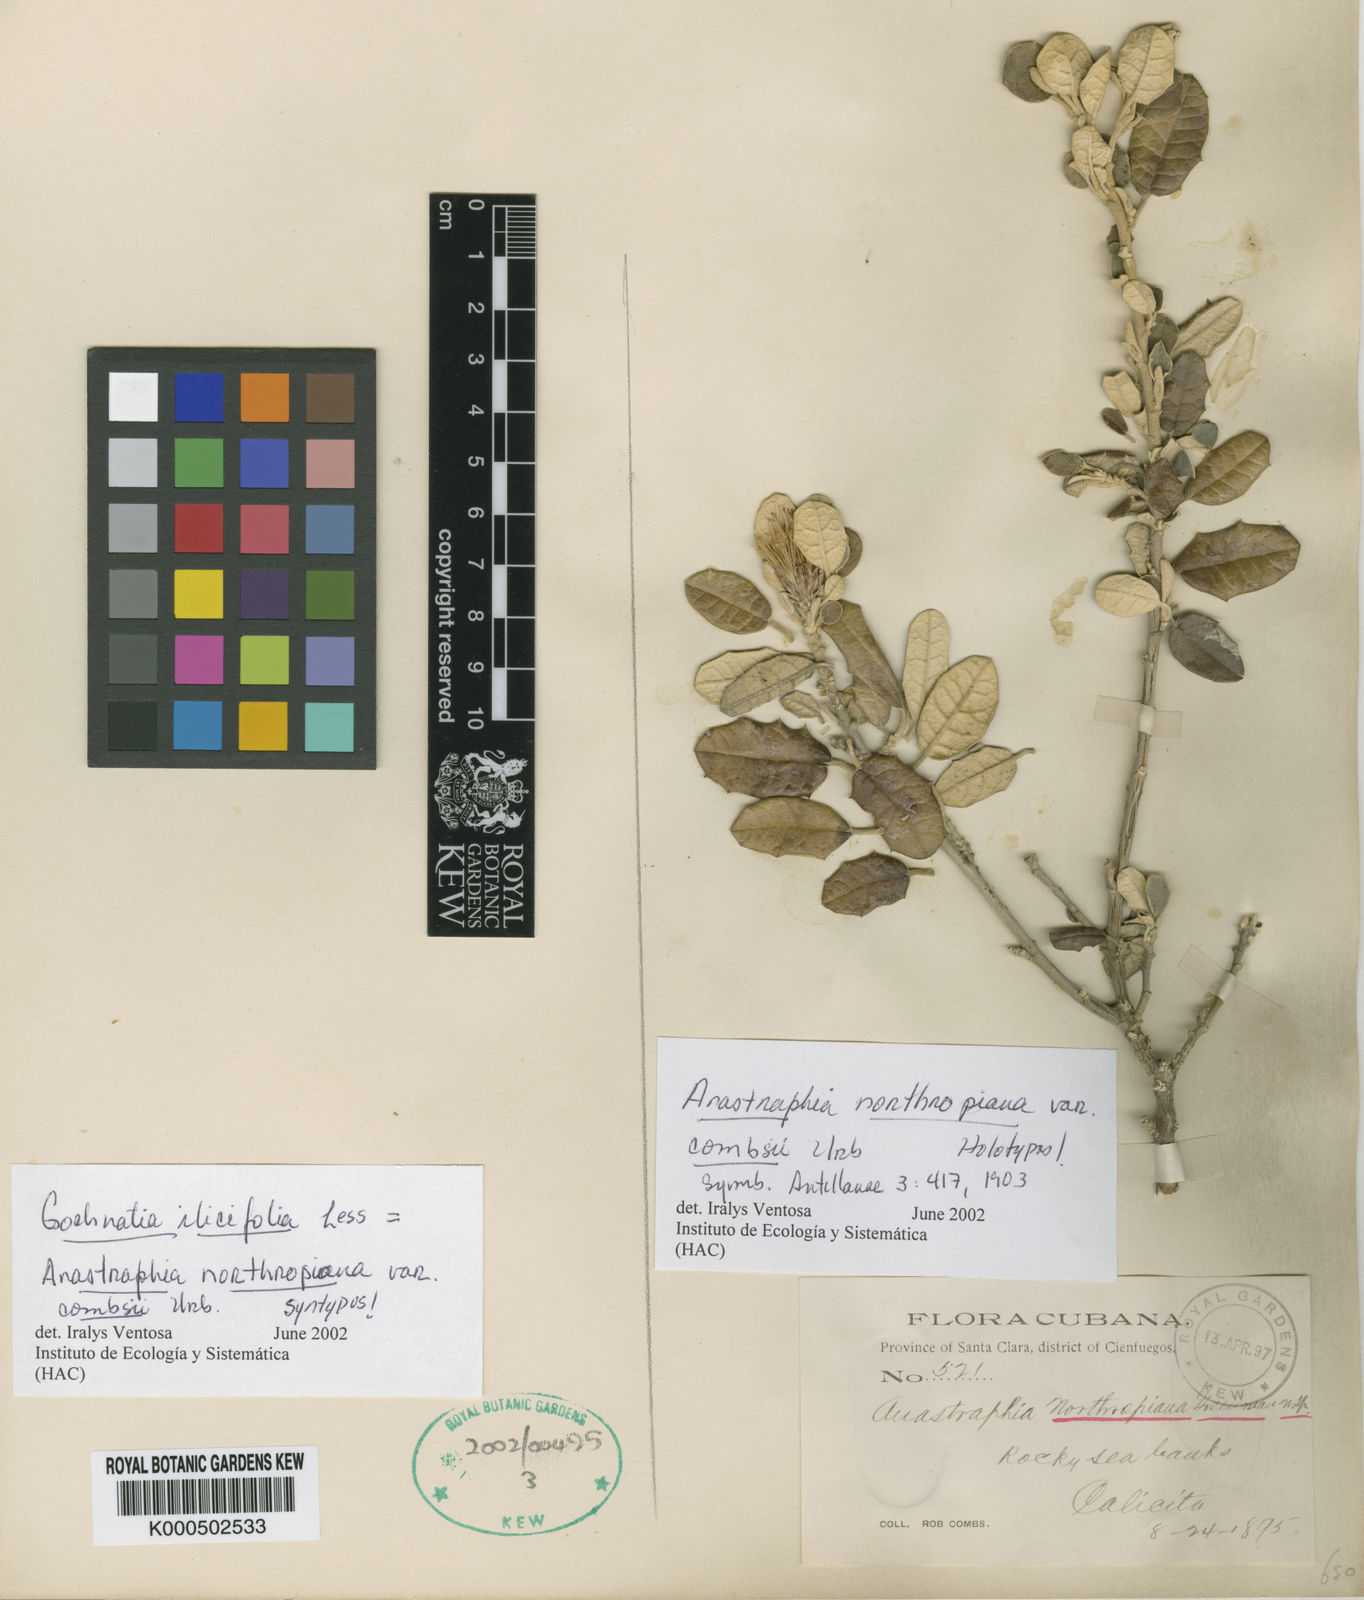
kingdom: Plantae
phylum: Tracheophyta
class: Magnoliopsida
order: Asterales
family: Asteraceae
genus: Anastraphia
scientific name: Anastraphia northropiana
